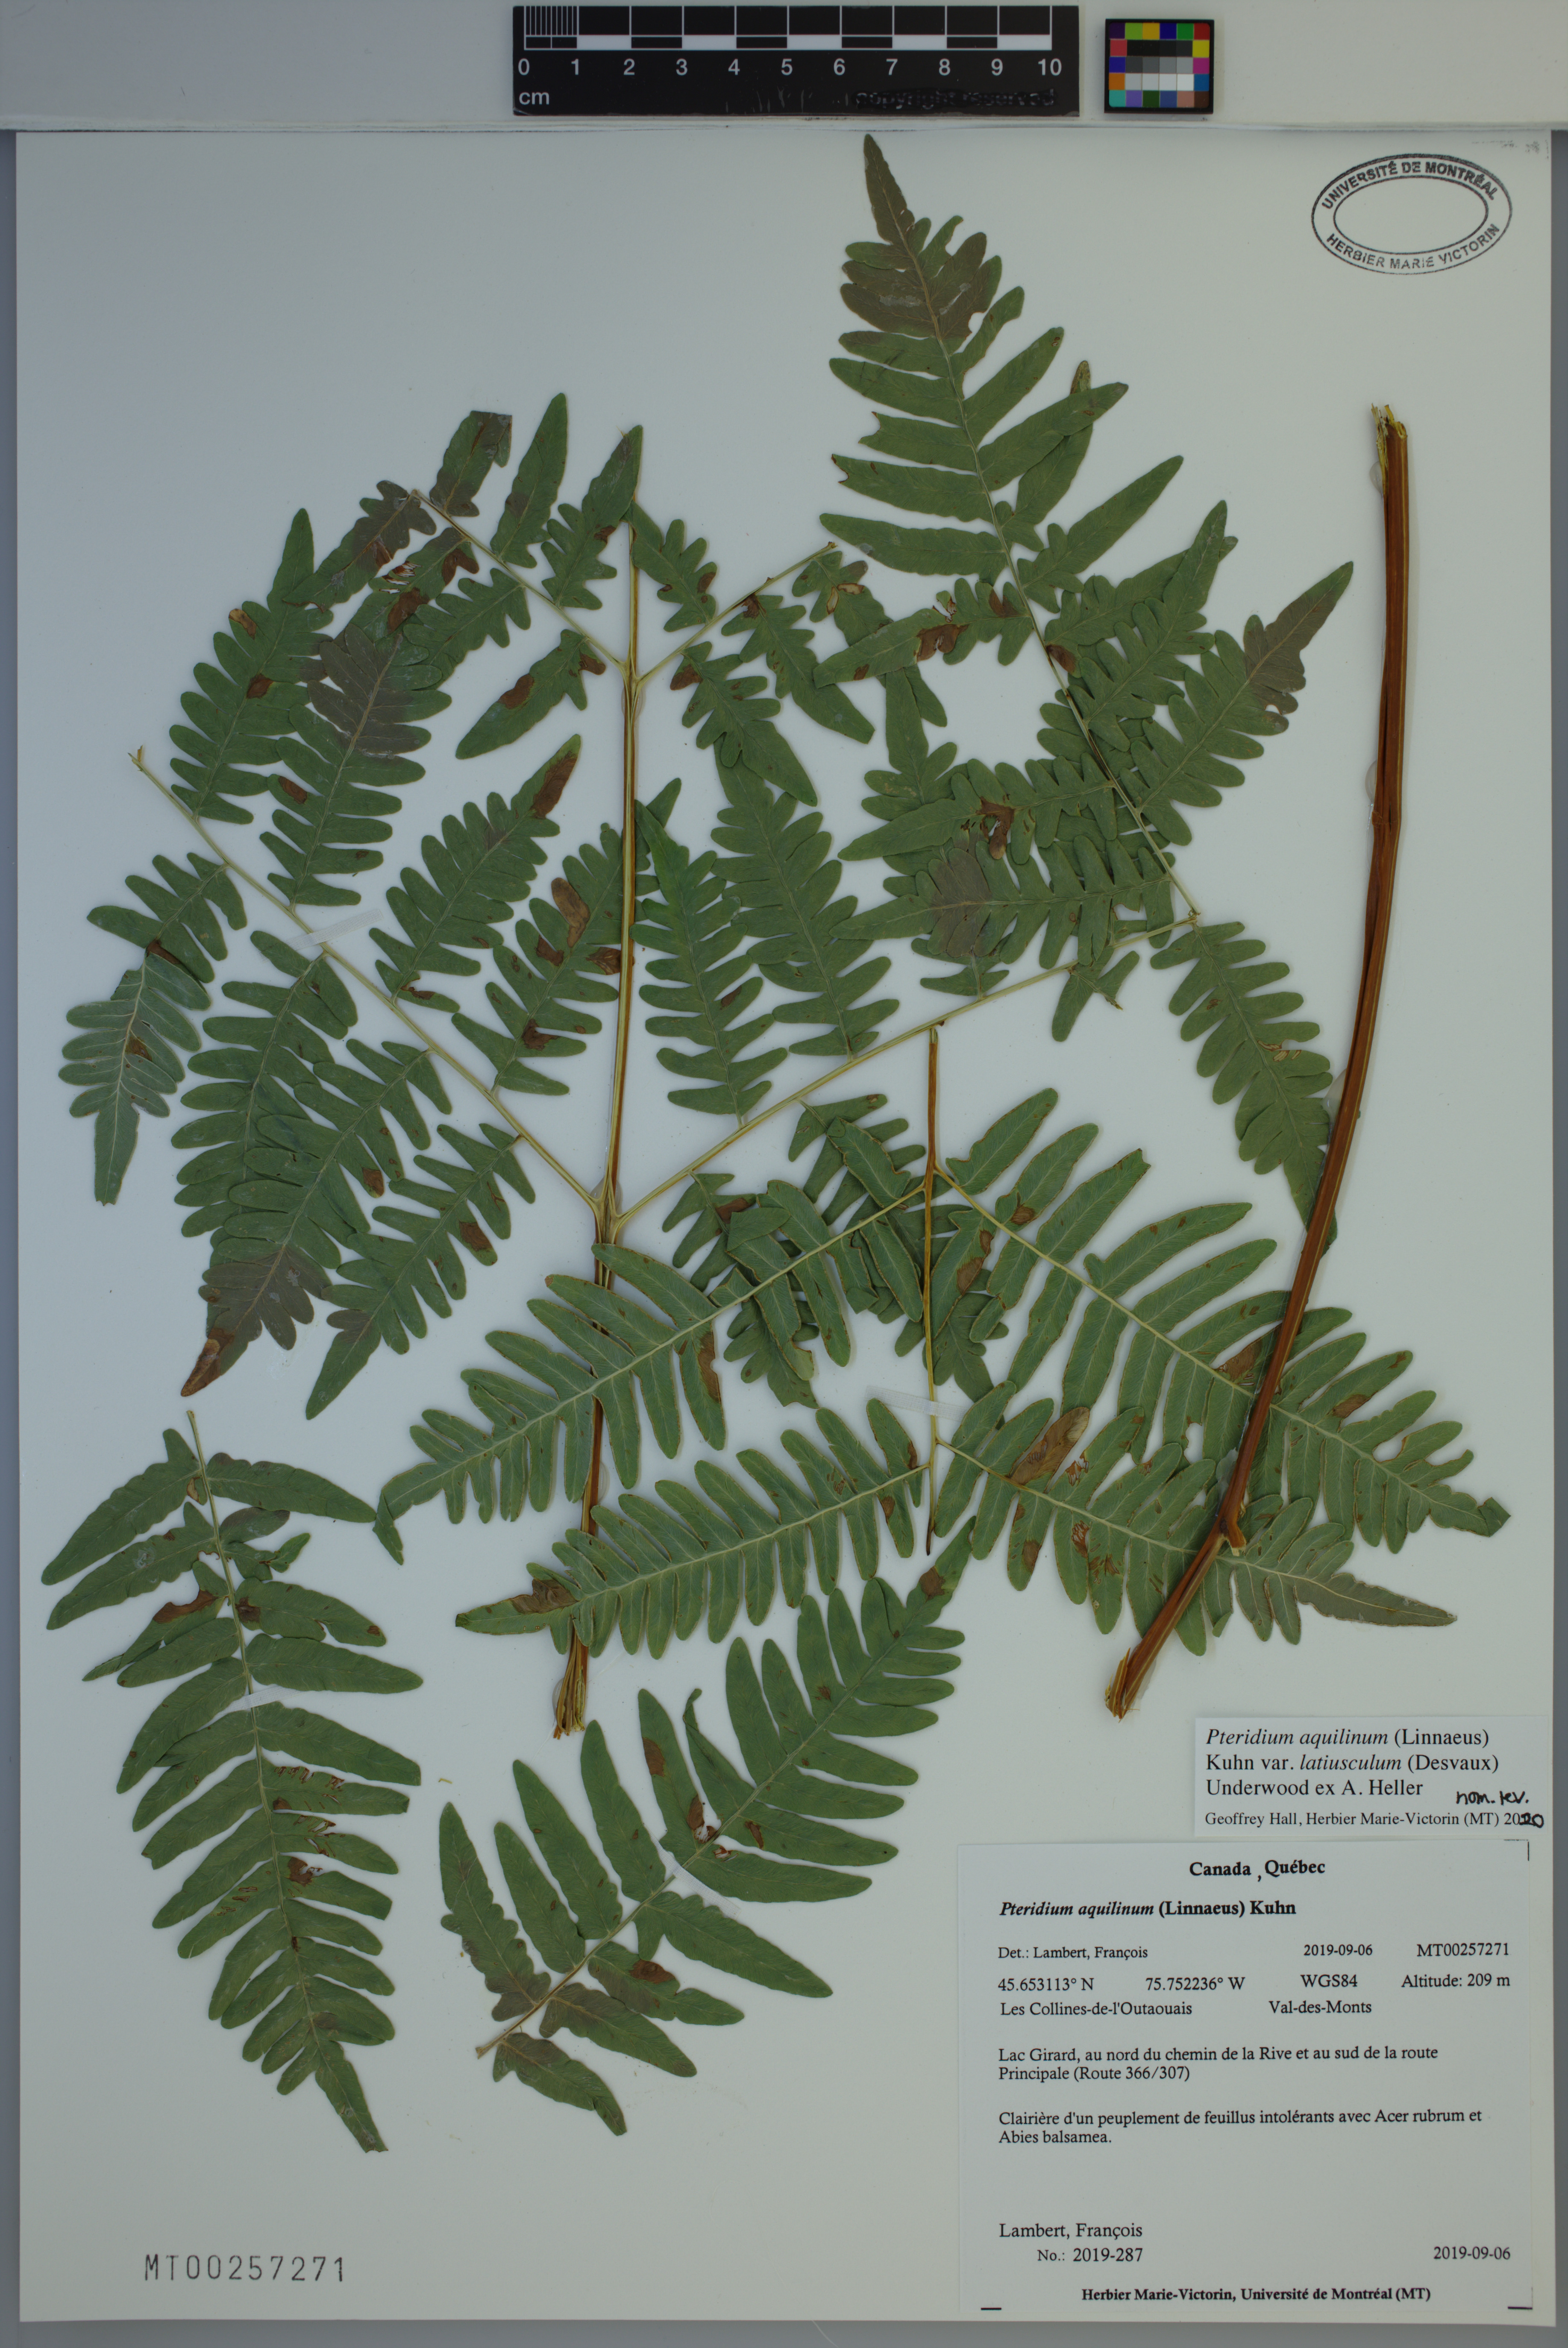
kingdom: Plantae
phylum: Tracheophyta
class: Polypodiopsida
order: Polypodiales
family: Dennstaedtiaceae
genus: Pteridium
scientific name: Pteridium aquilinum
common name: Bracken
